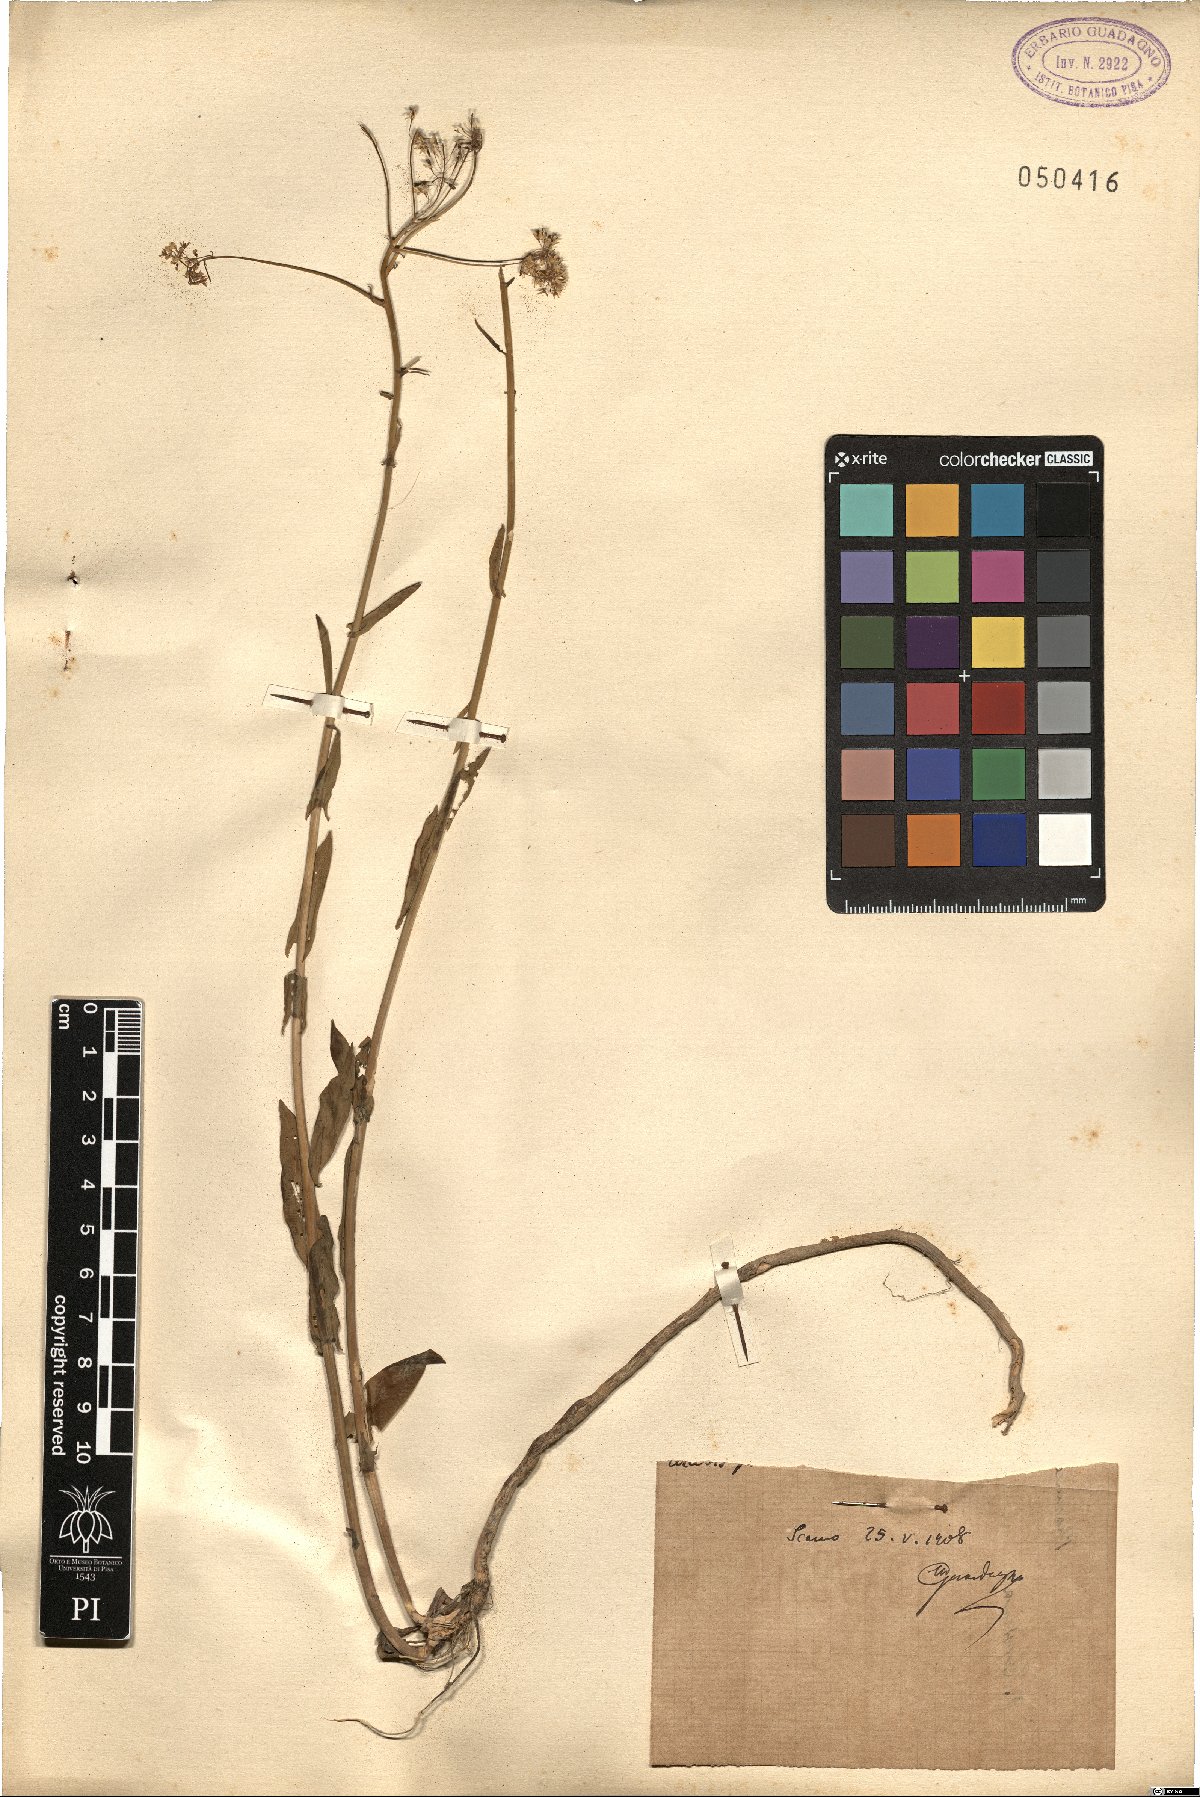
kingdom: Plantae
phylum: Tracheophyta
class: Magnoliopsida
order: Brassicales
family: Brassicaceae
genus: Peltaria
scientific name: Peltaria
